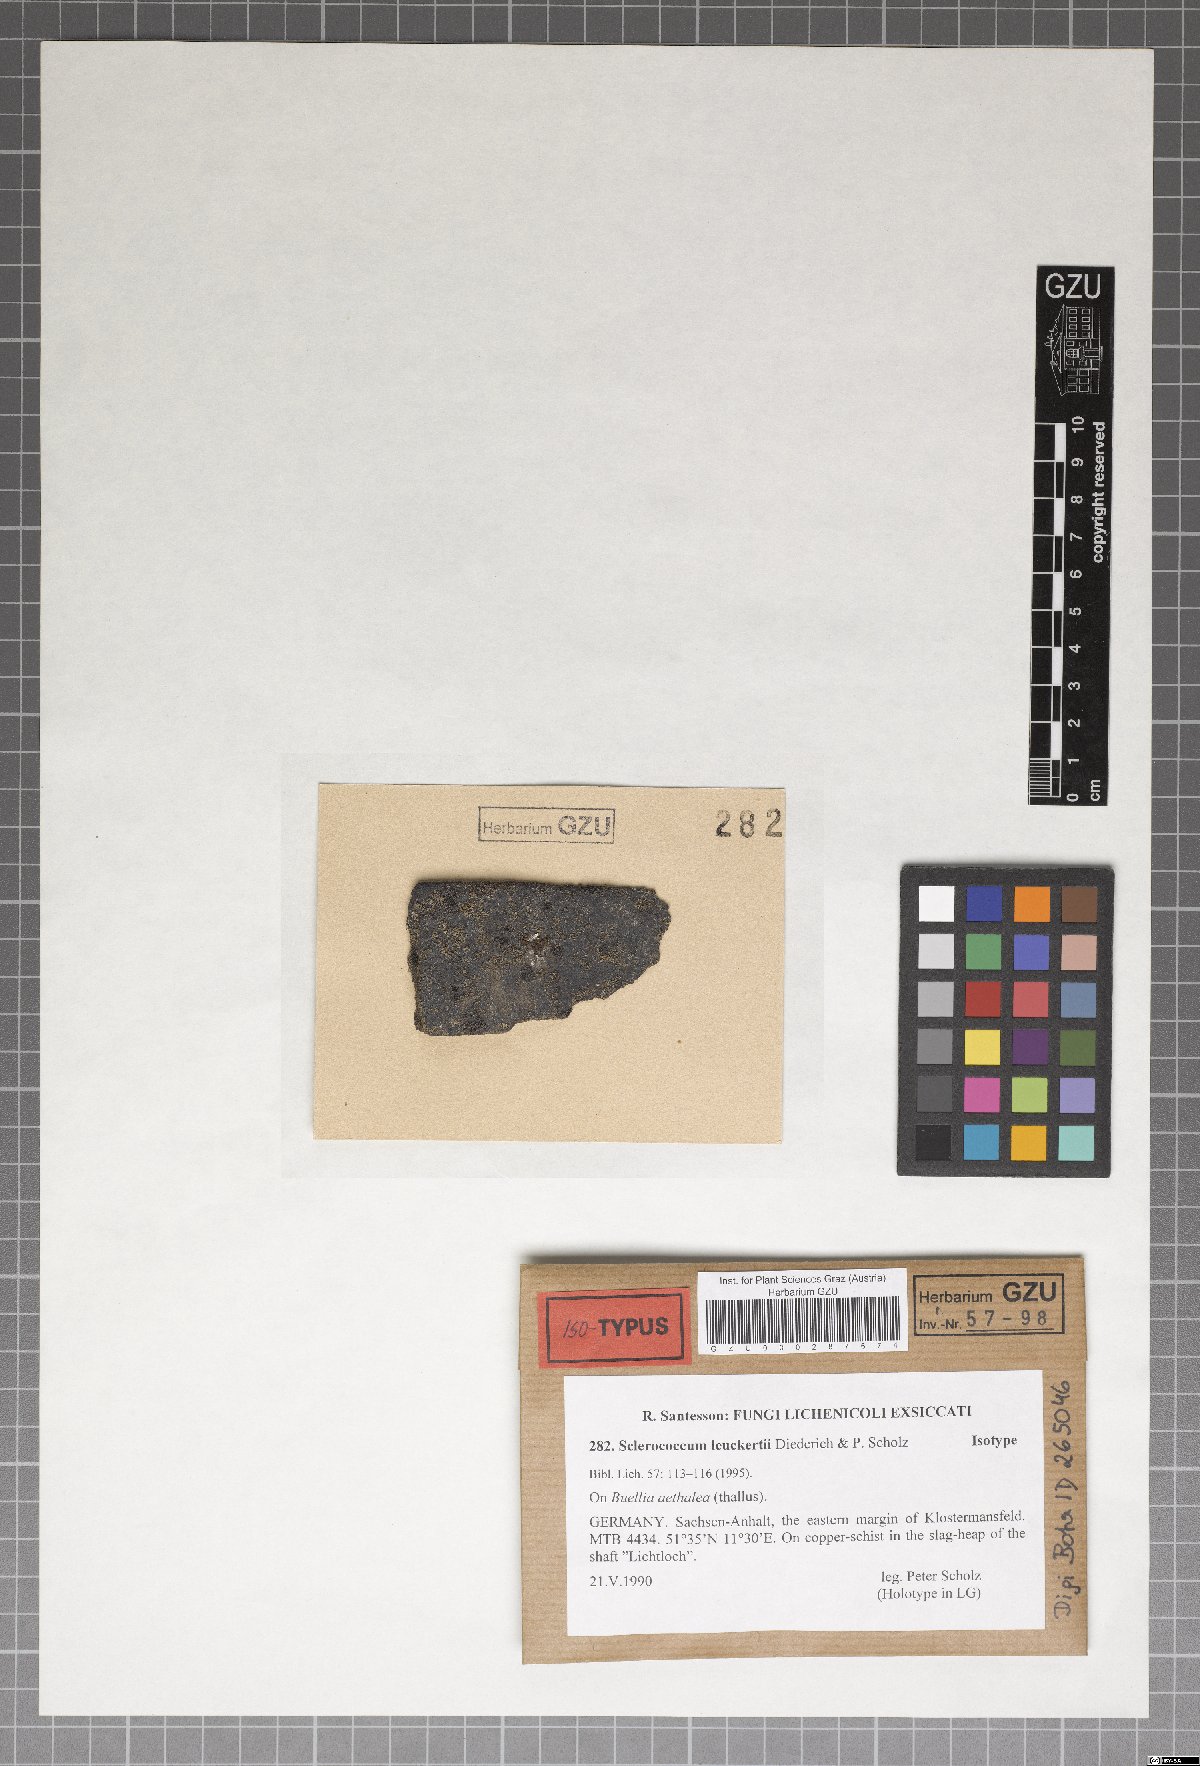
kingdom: Fungi
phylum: Ascomycota
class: Eurotiomycetes
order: Sclerococcales
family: Sclerococcaceae
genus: Sclerococcum
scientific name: Sclerococcum leuckertii
